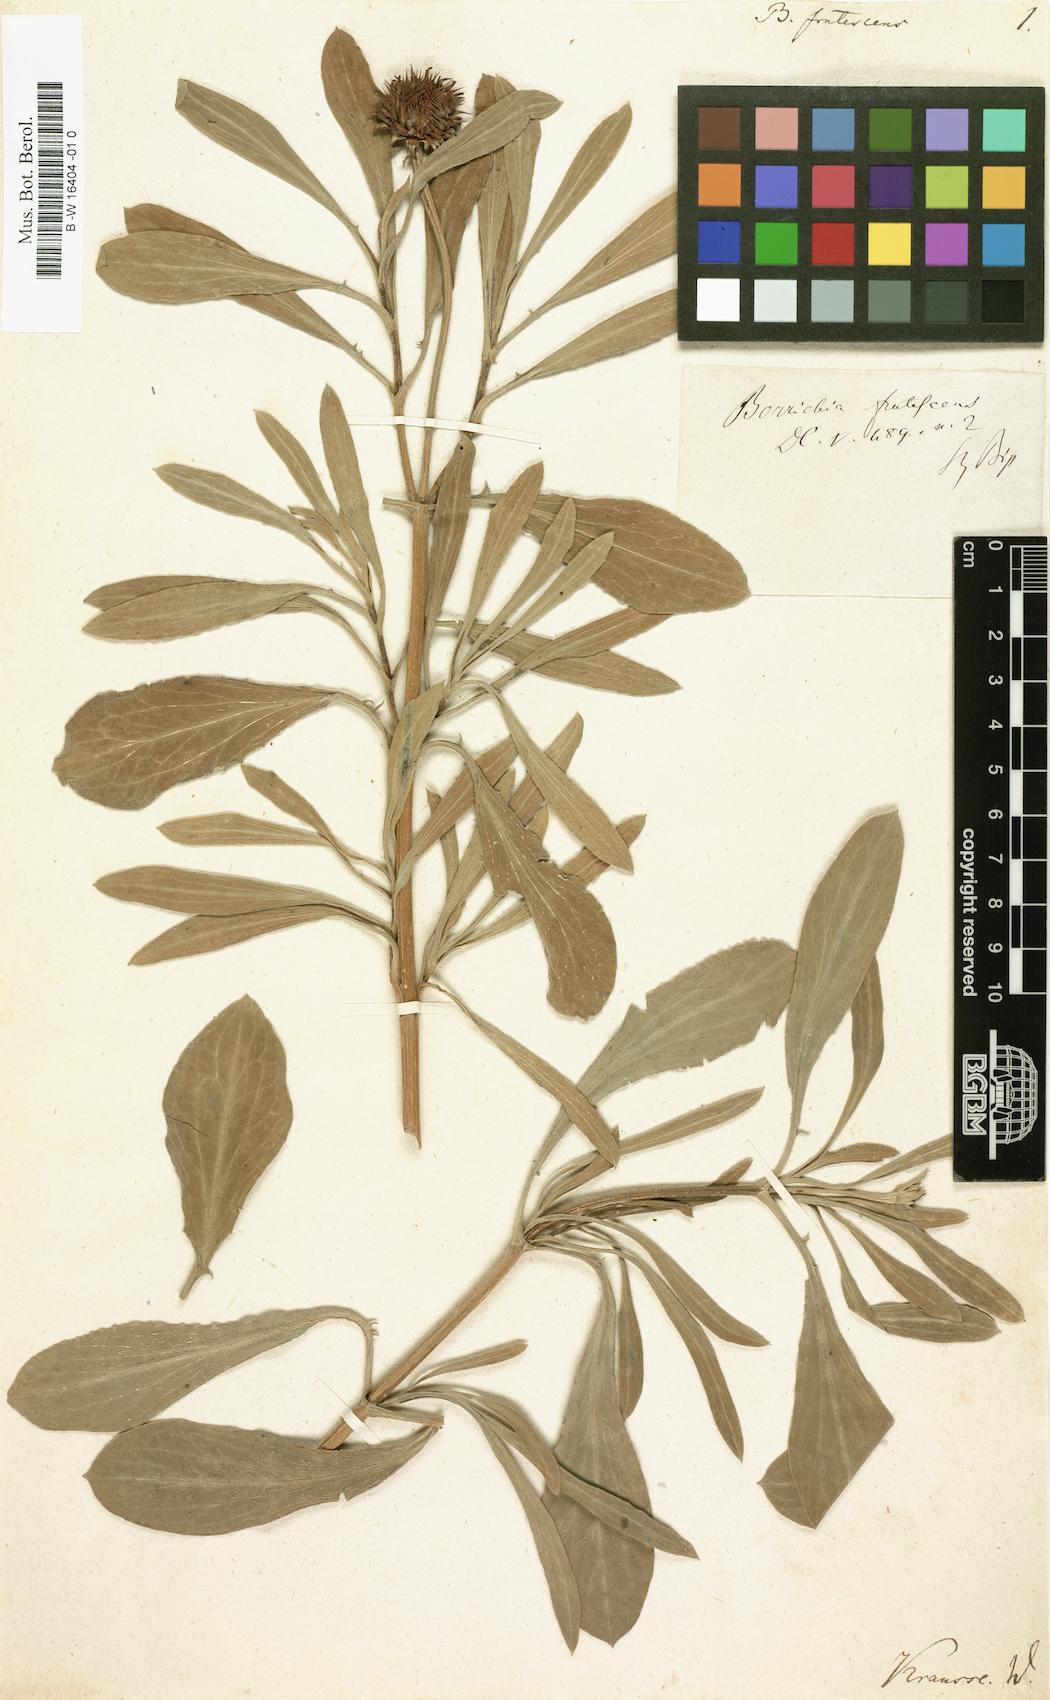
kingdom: Plantae
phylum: Tracheophyta
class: Magnoliopsida
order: Asterales
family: Asteraceae
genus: Borrichia
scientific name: Borrichia frutescens
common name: Sea oxeye
